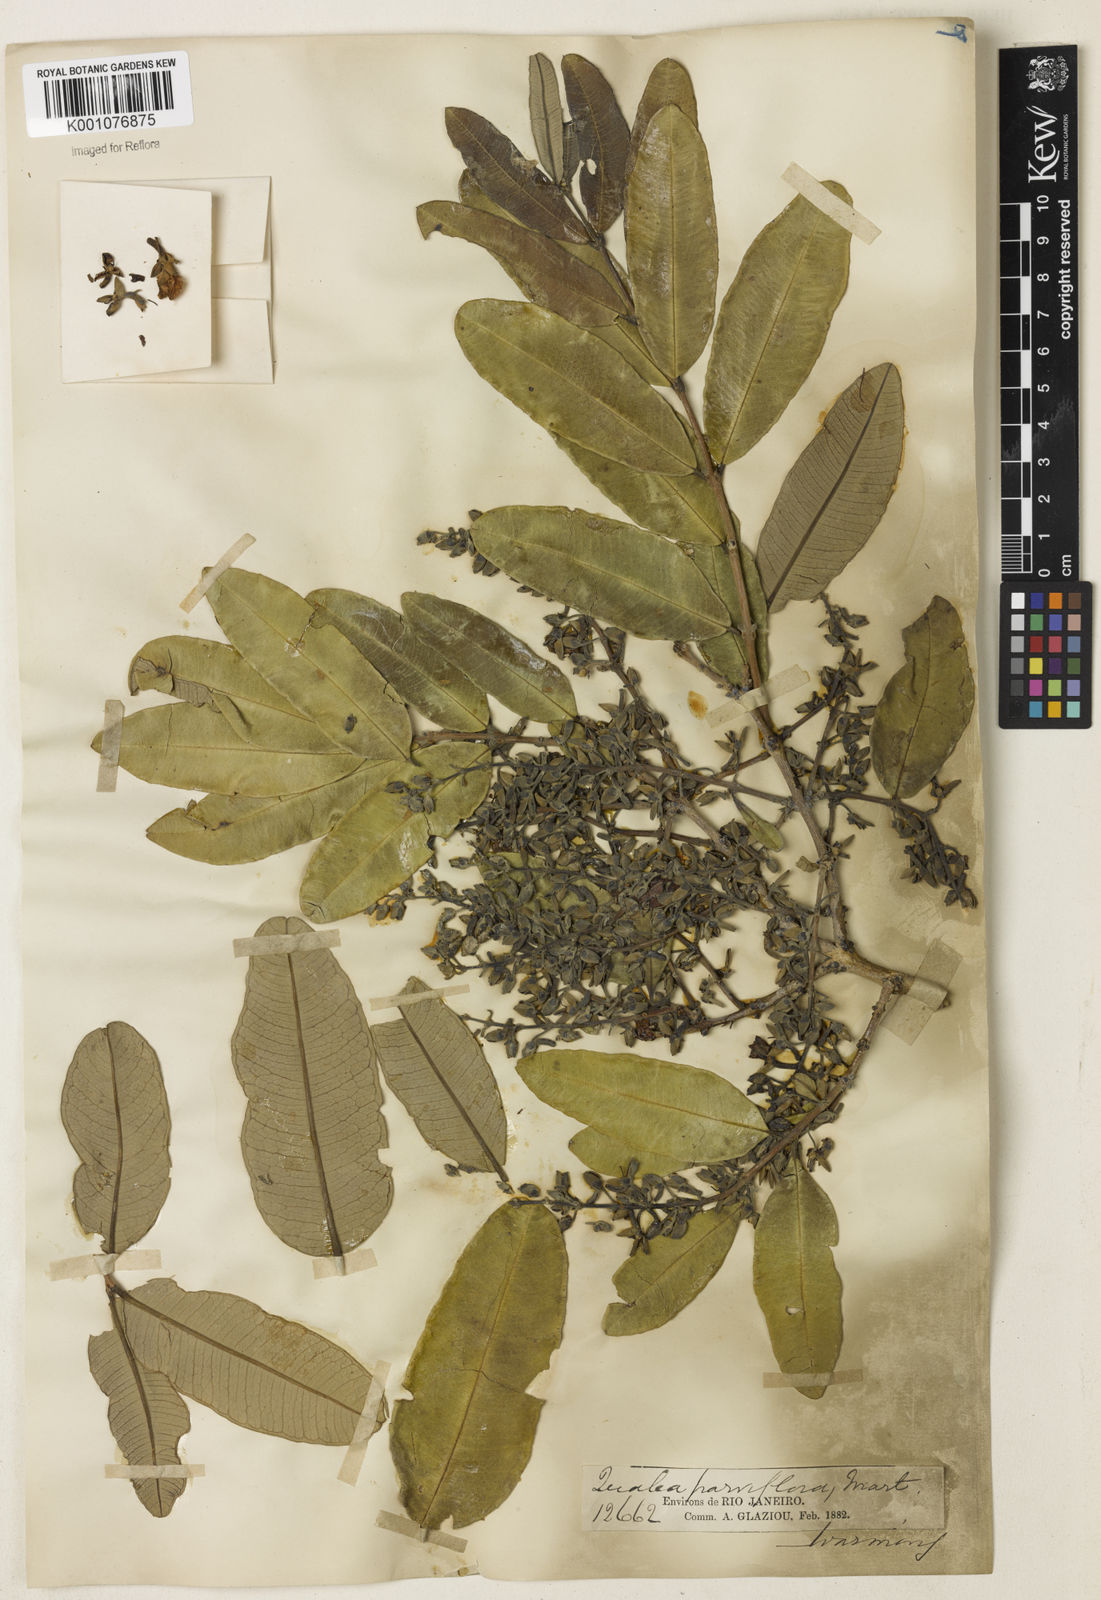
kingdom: Plantae
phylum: Tracheophyta
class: Magnoliopsida
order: Myrtales
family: Vochysiaceae
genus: Qualea
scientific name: Qualea parviflora
